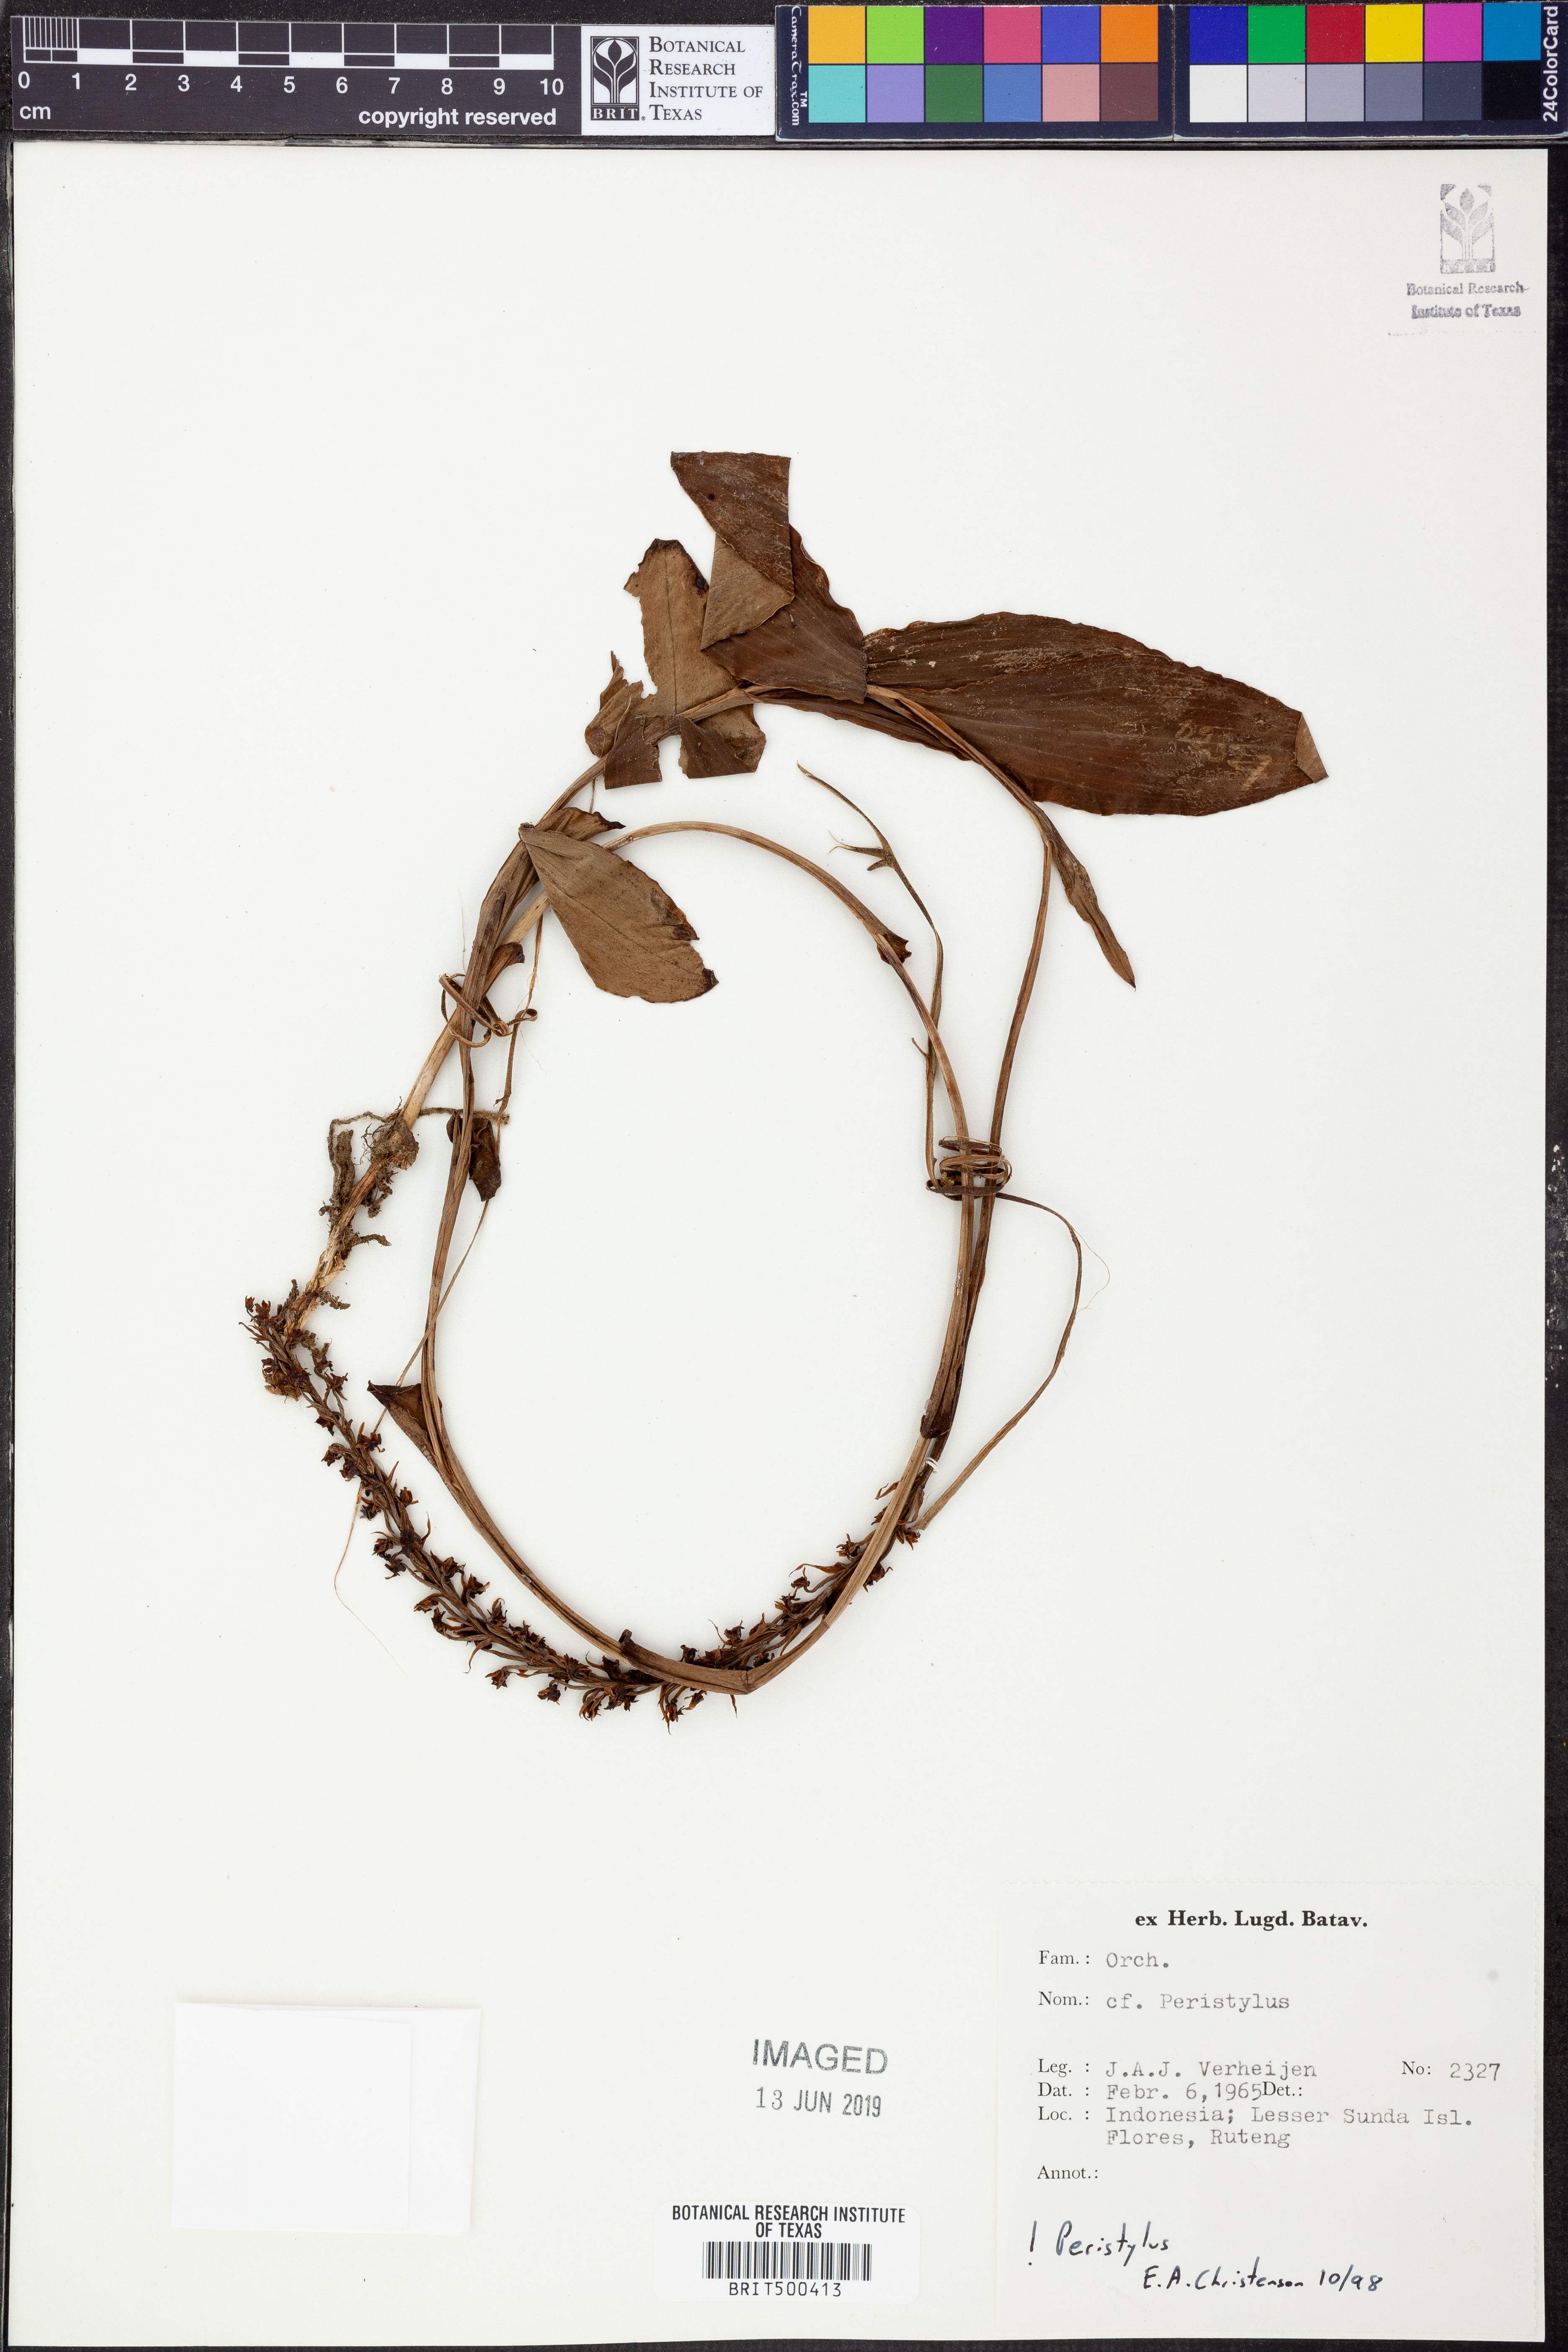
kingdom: Plantae
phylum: Tracheophyta
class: Liliopsida
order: Asparagales
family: Orchidaceae
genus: Peristylus
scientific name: Peristylus
